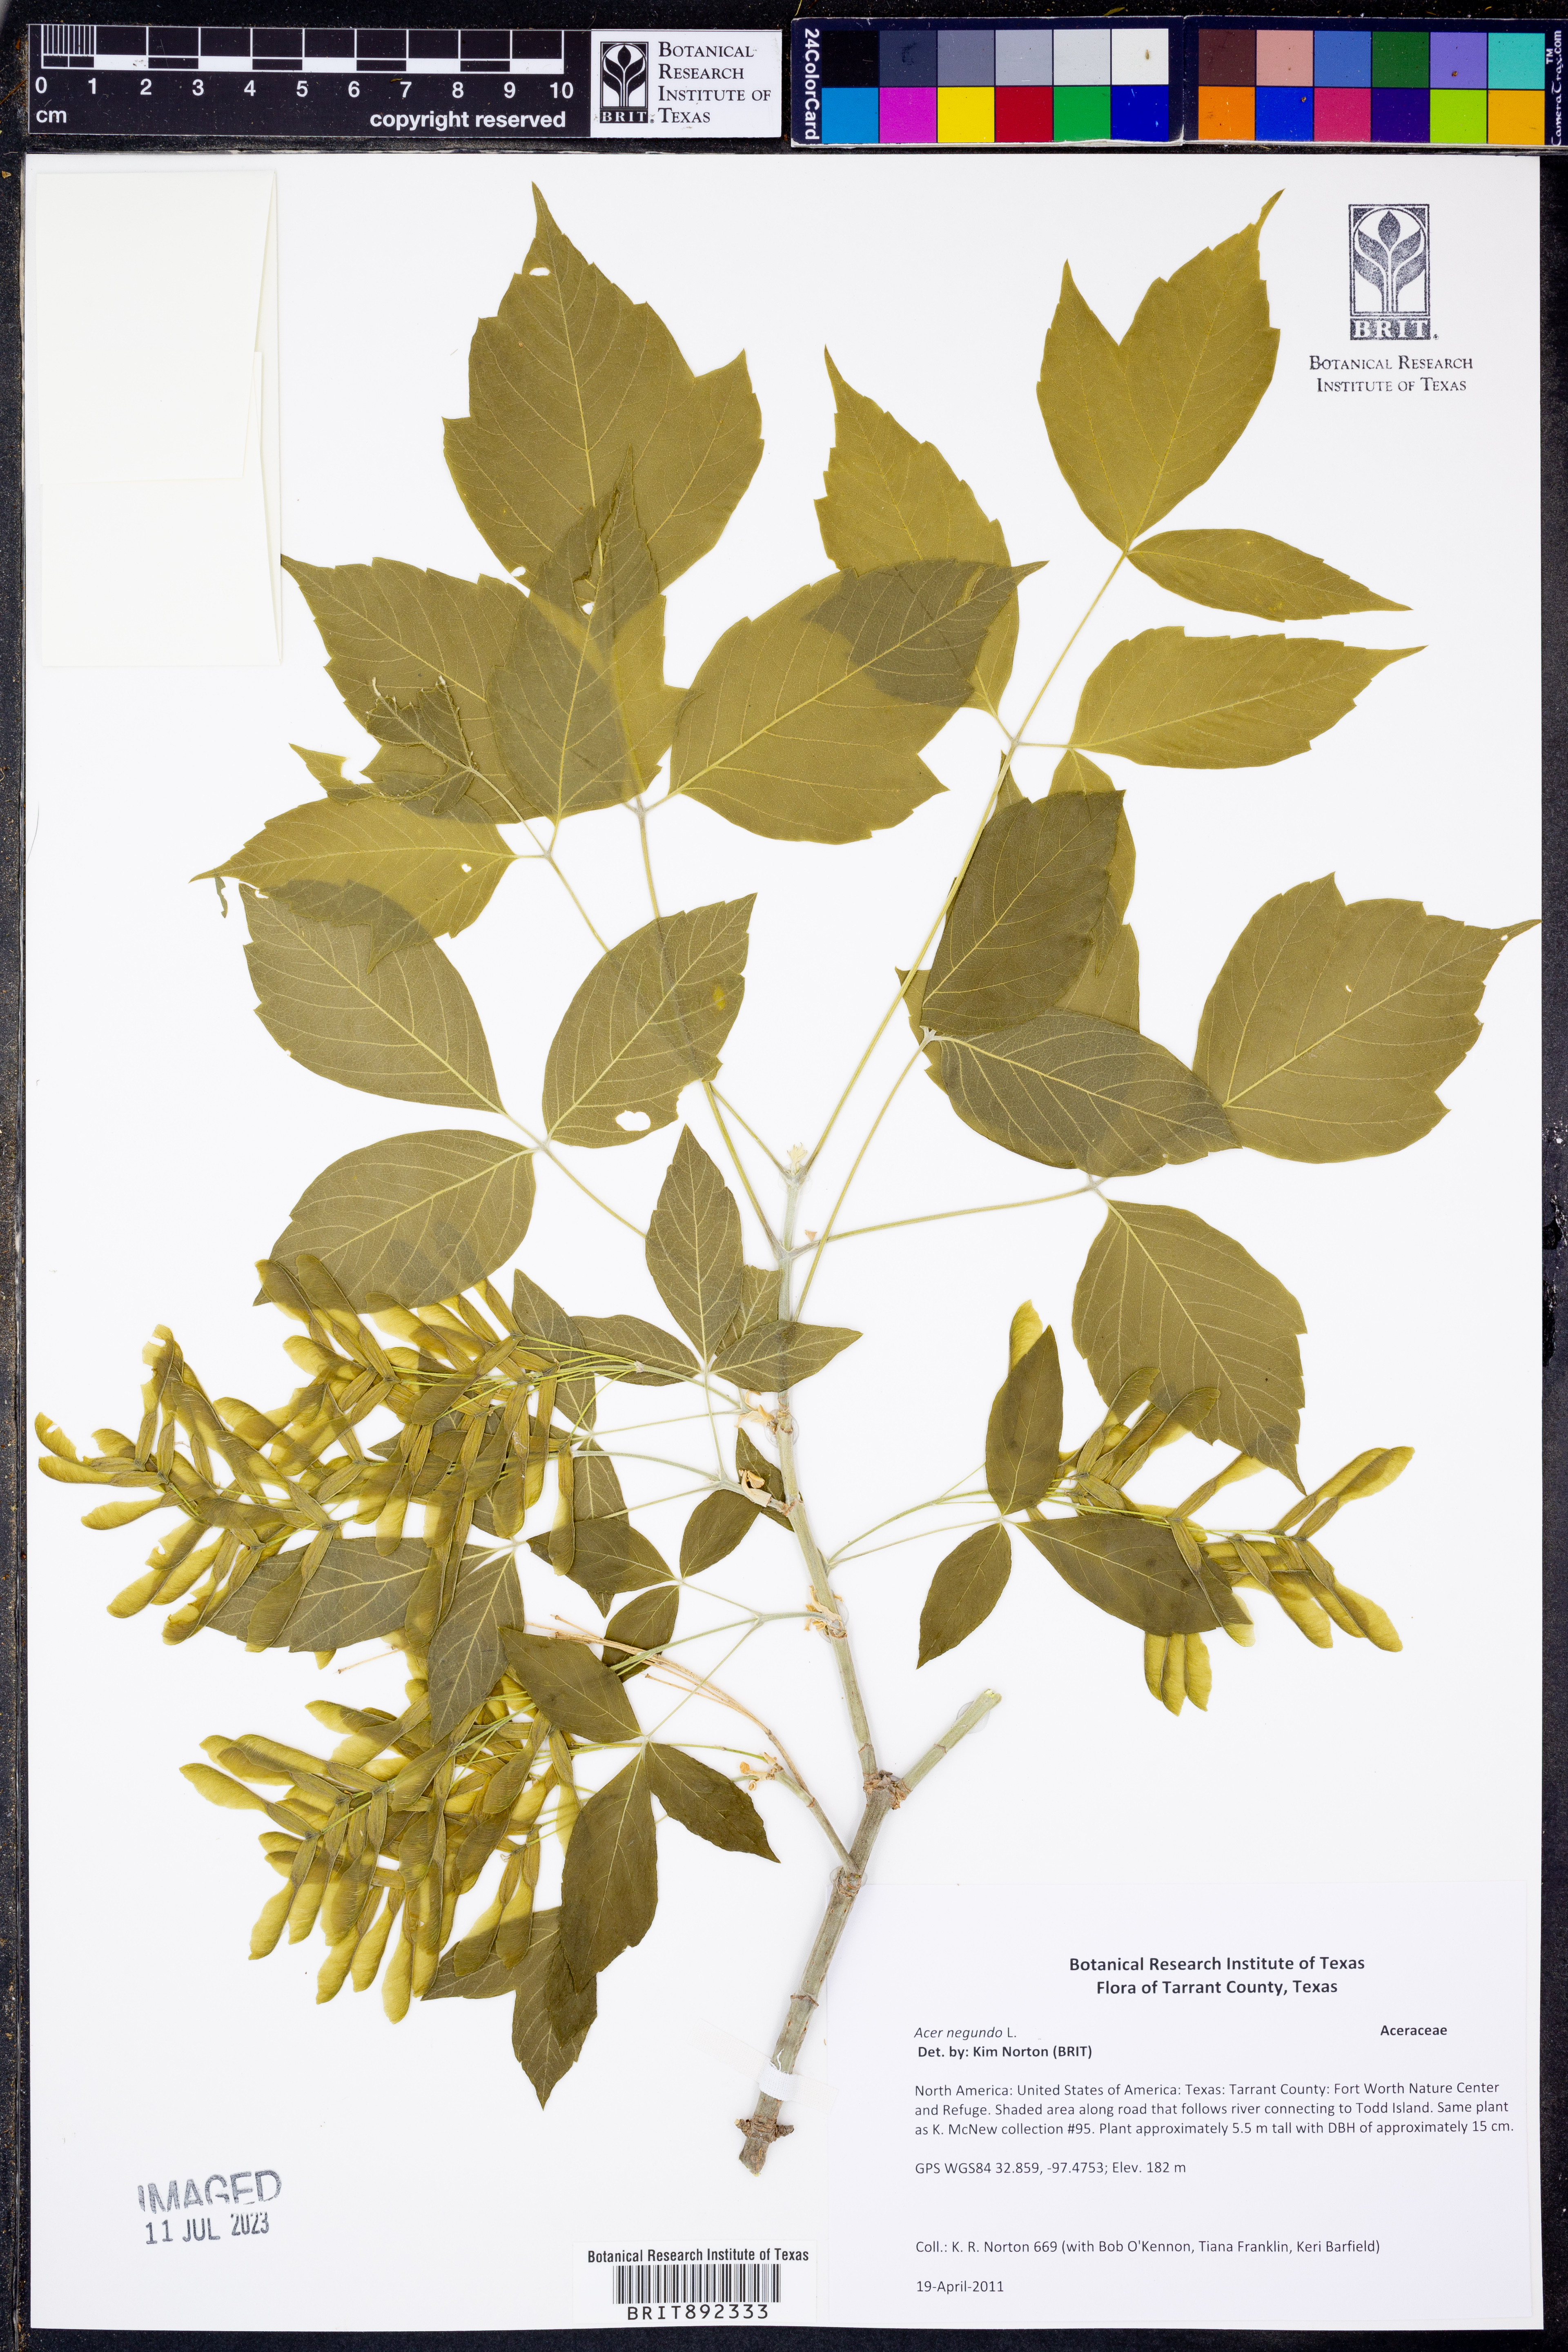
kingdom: Plantae
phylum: Tracheophyta
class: Magnoliopsida
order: Sapindales
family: Sapindaceae
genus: Acer
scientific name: Acer negundo
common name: Ashleaf maple
